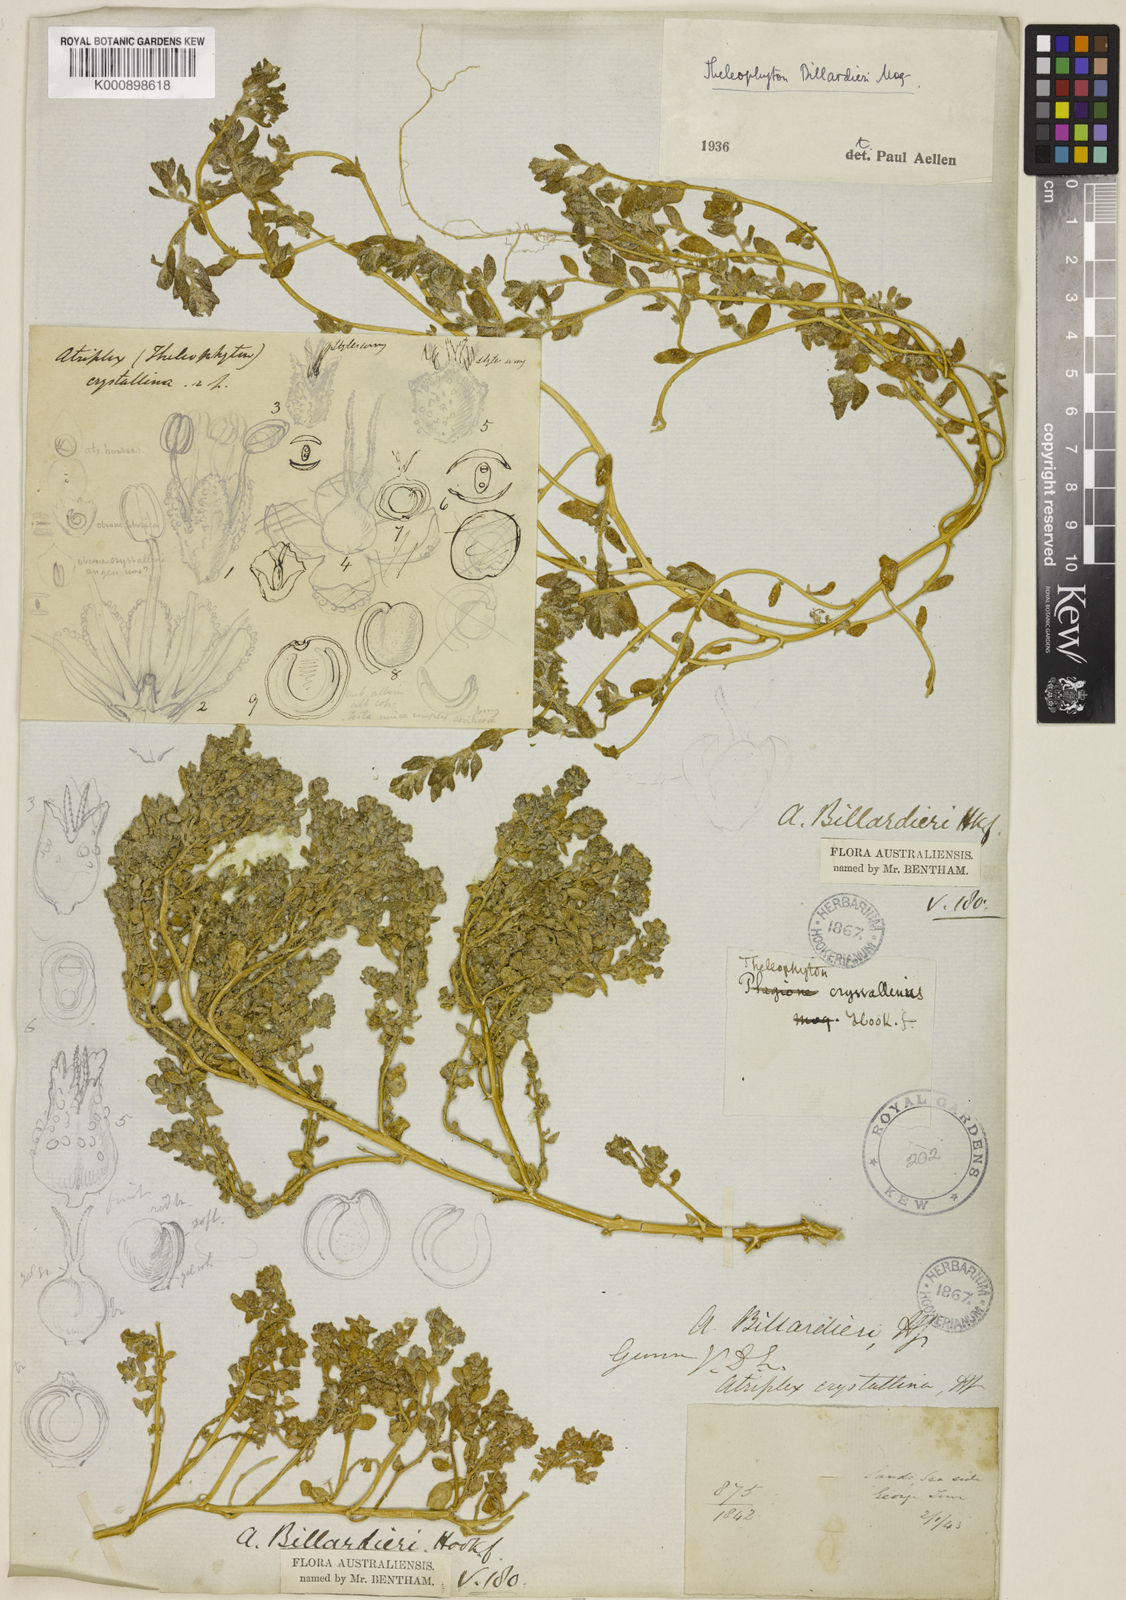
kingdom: Plantae
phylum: Tracheophyta
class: Magnoliopsida
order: Caryophyllales
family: Amaranthaceae
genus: Atriplex
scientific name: Atriplex billardierei
